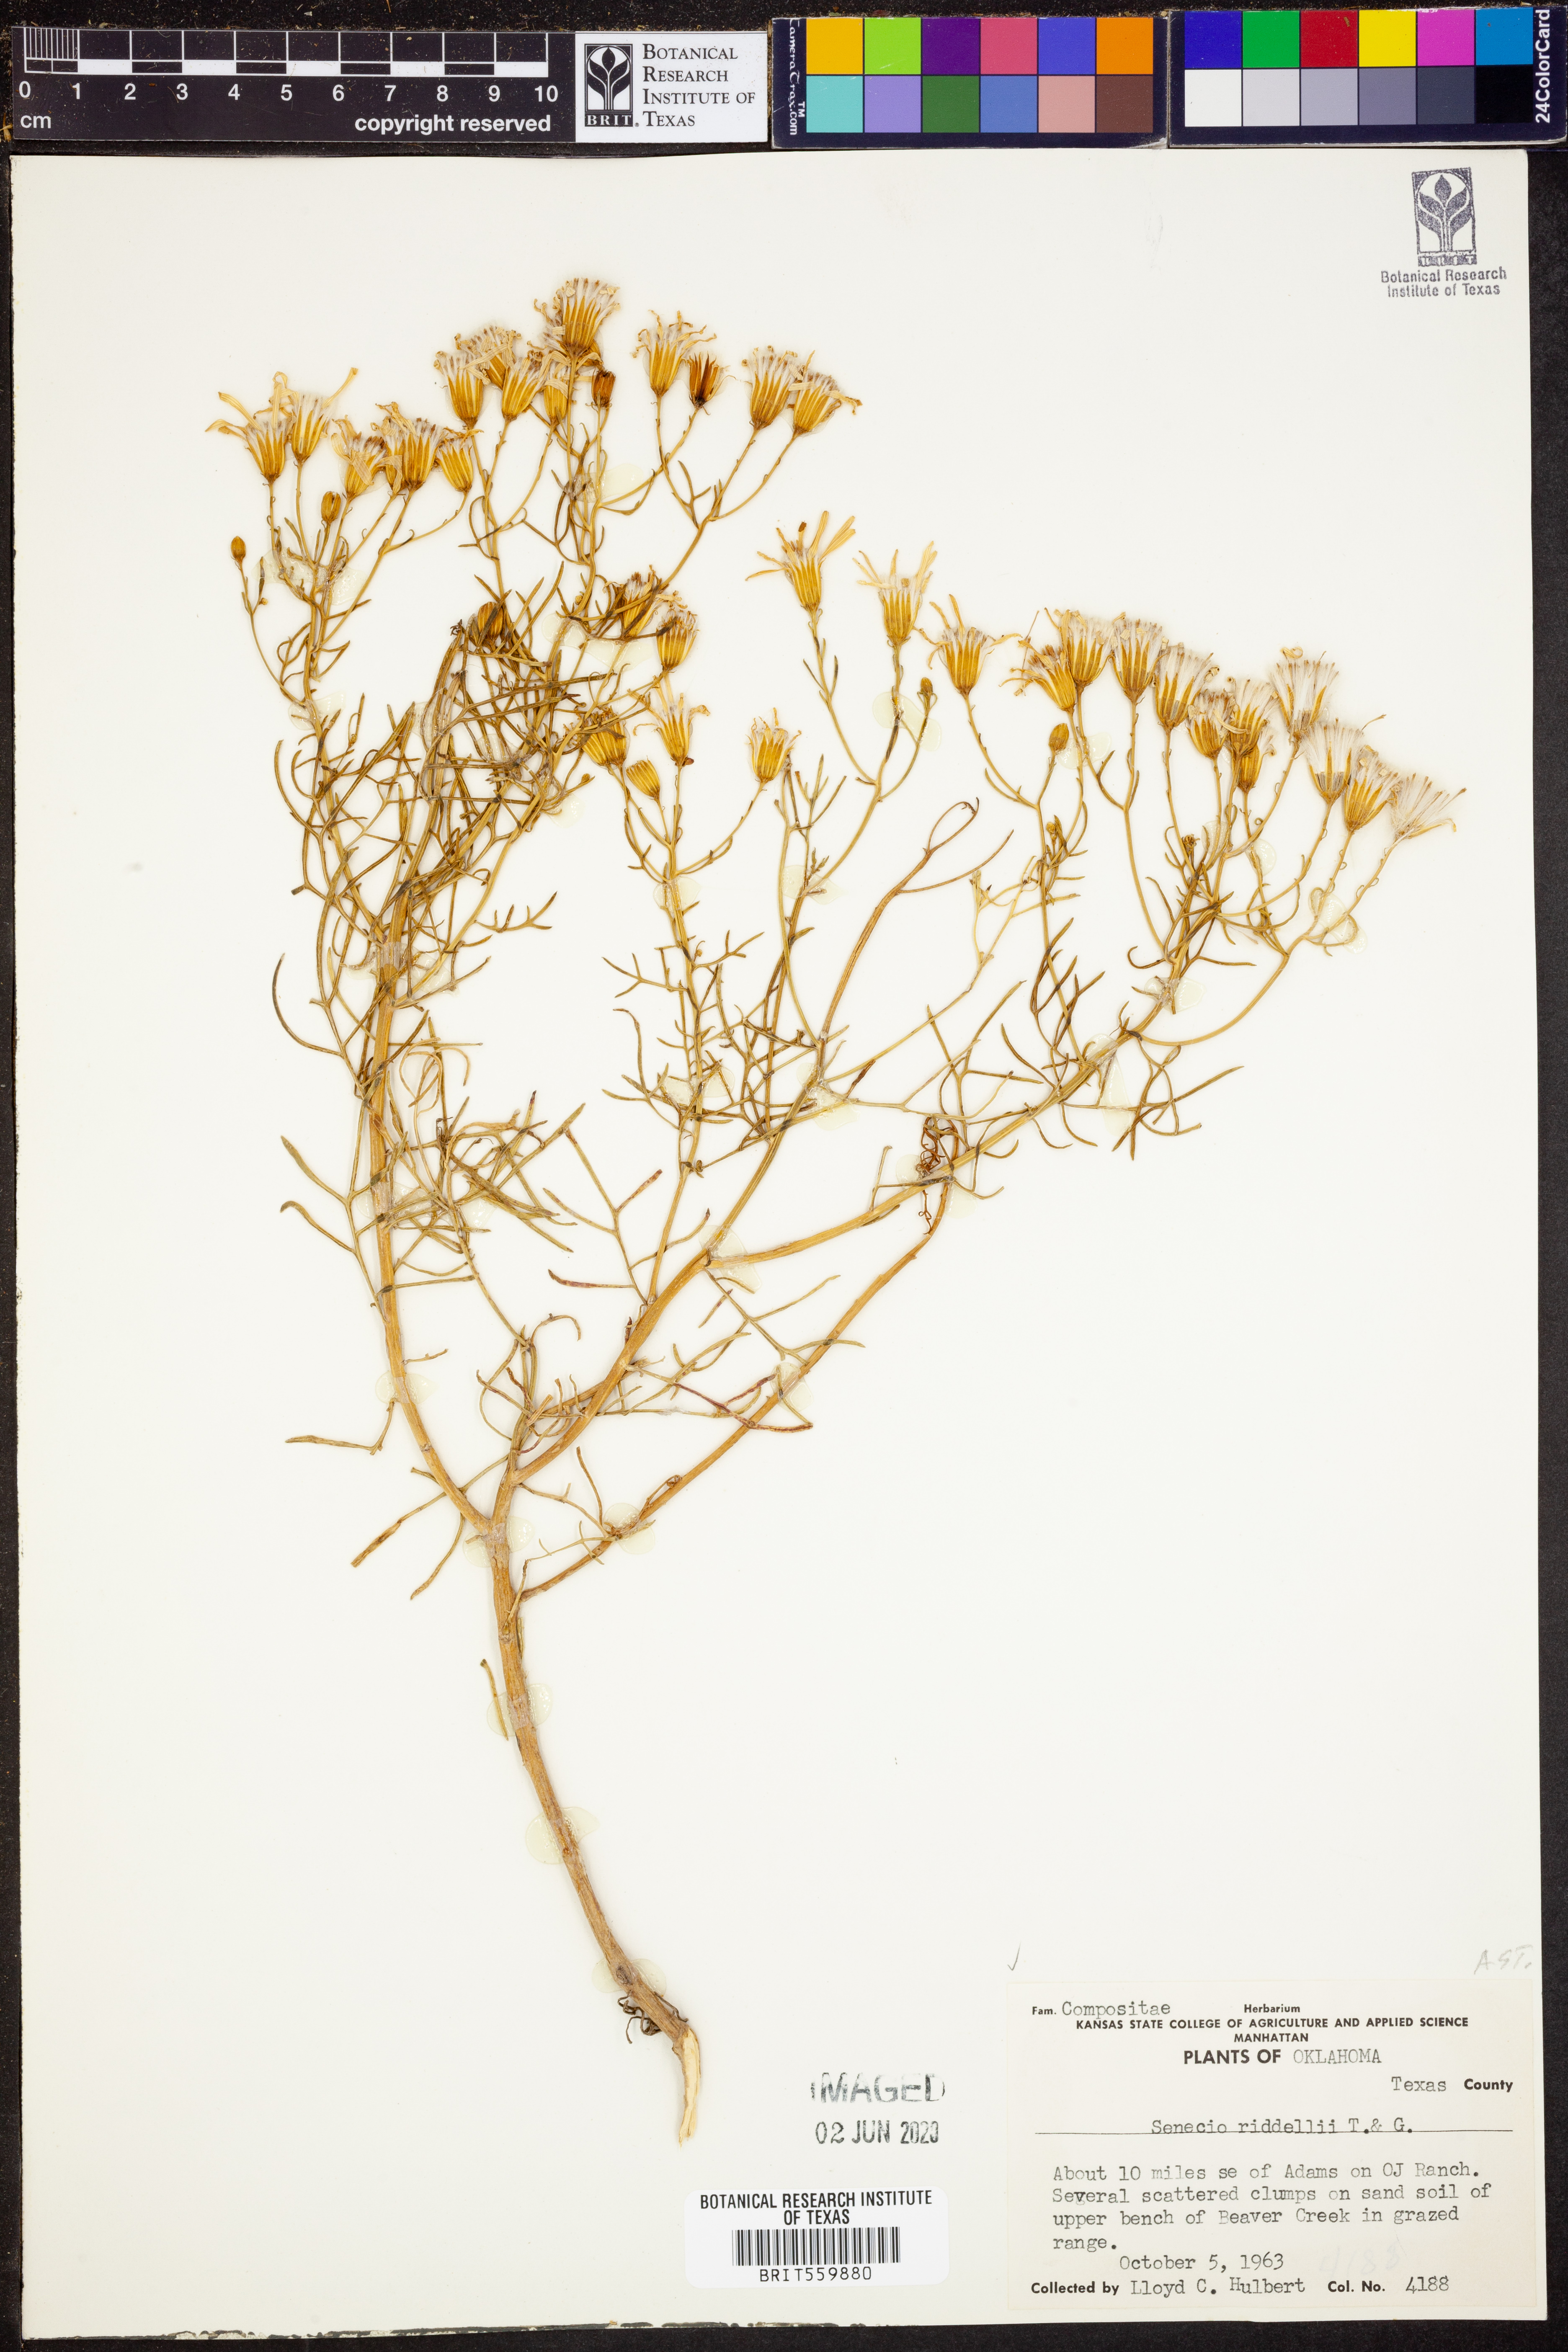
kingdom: Plantae
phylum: Tracheophyta
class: Magnoliopsida
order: Asterales
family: Asteraceae
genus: Senecio
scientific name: Senecio riddellii
